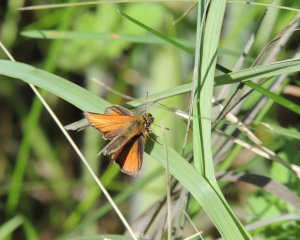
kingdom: Animalia
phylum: Arthropoda
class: Insecta
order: Lepidoptera
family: Hesperiidae
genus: Thymelicus
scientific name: Thymelicus lineola
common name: European Skipper
